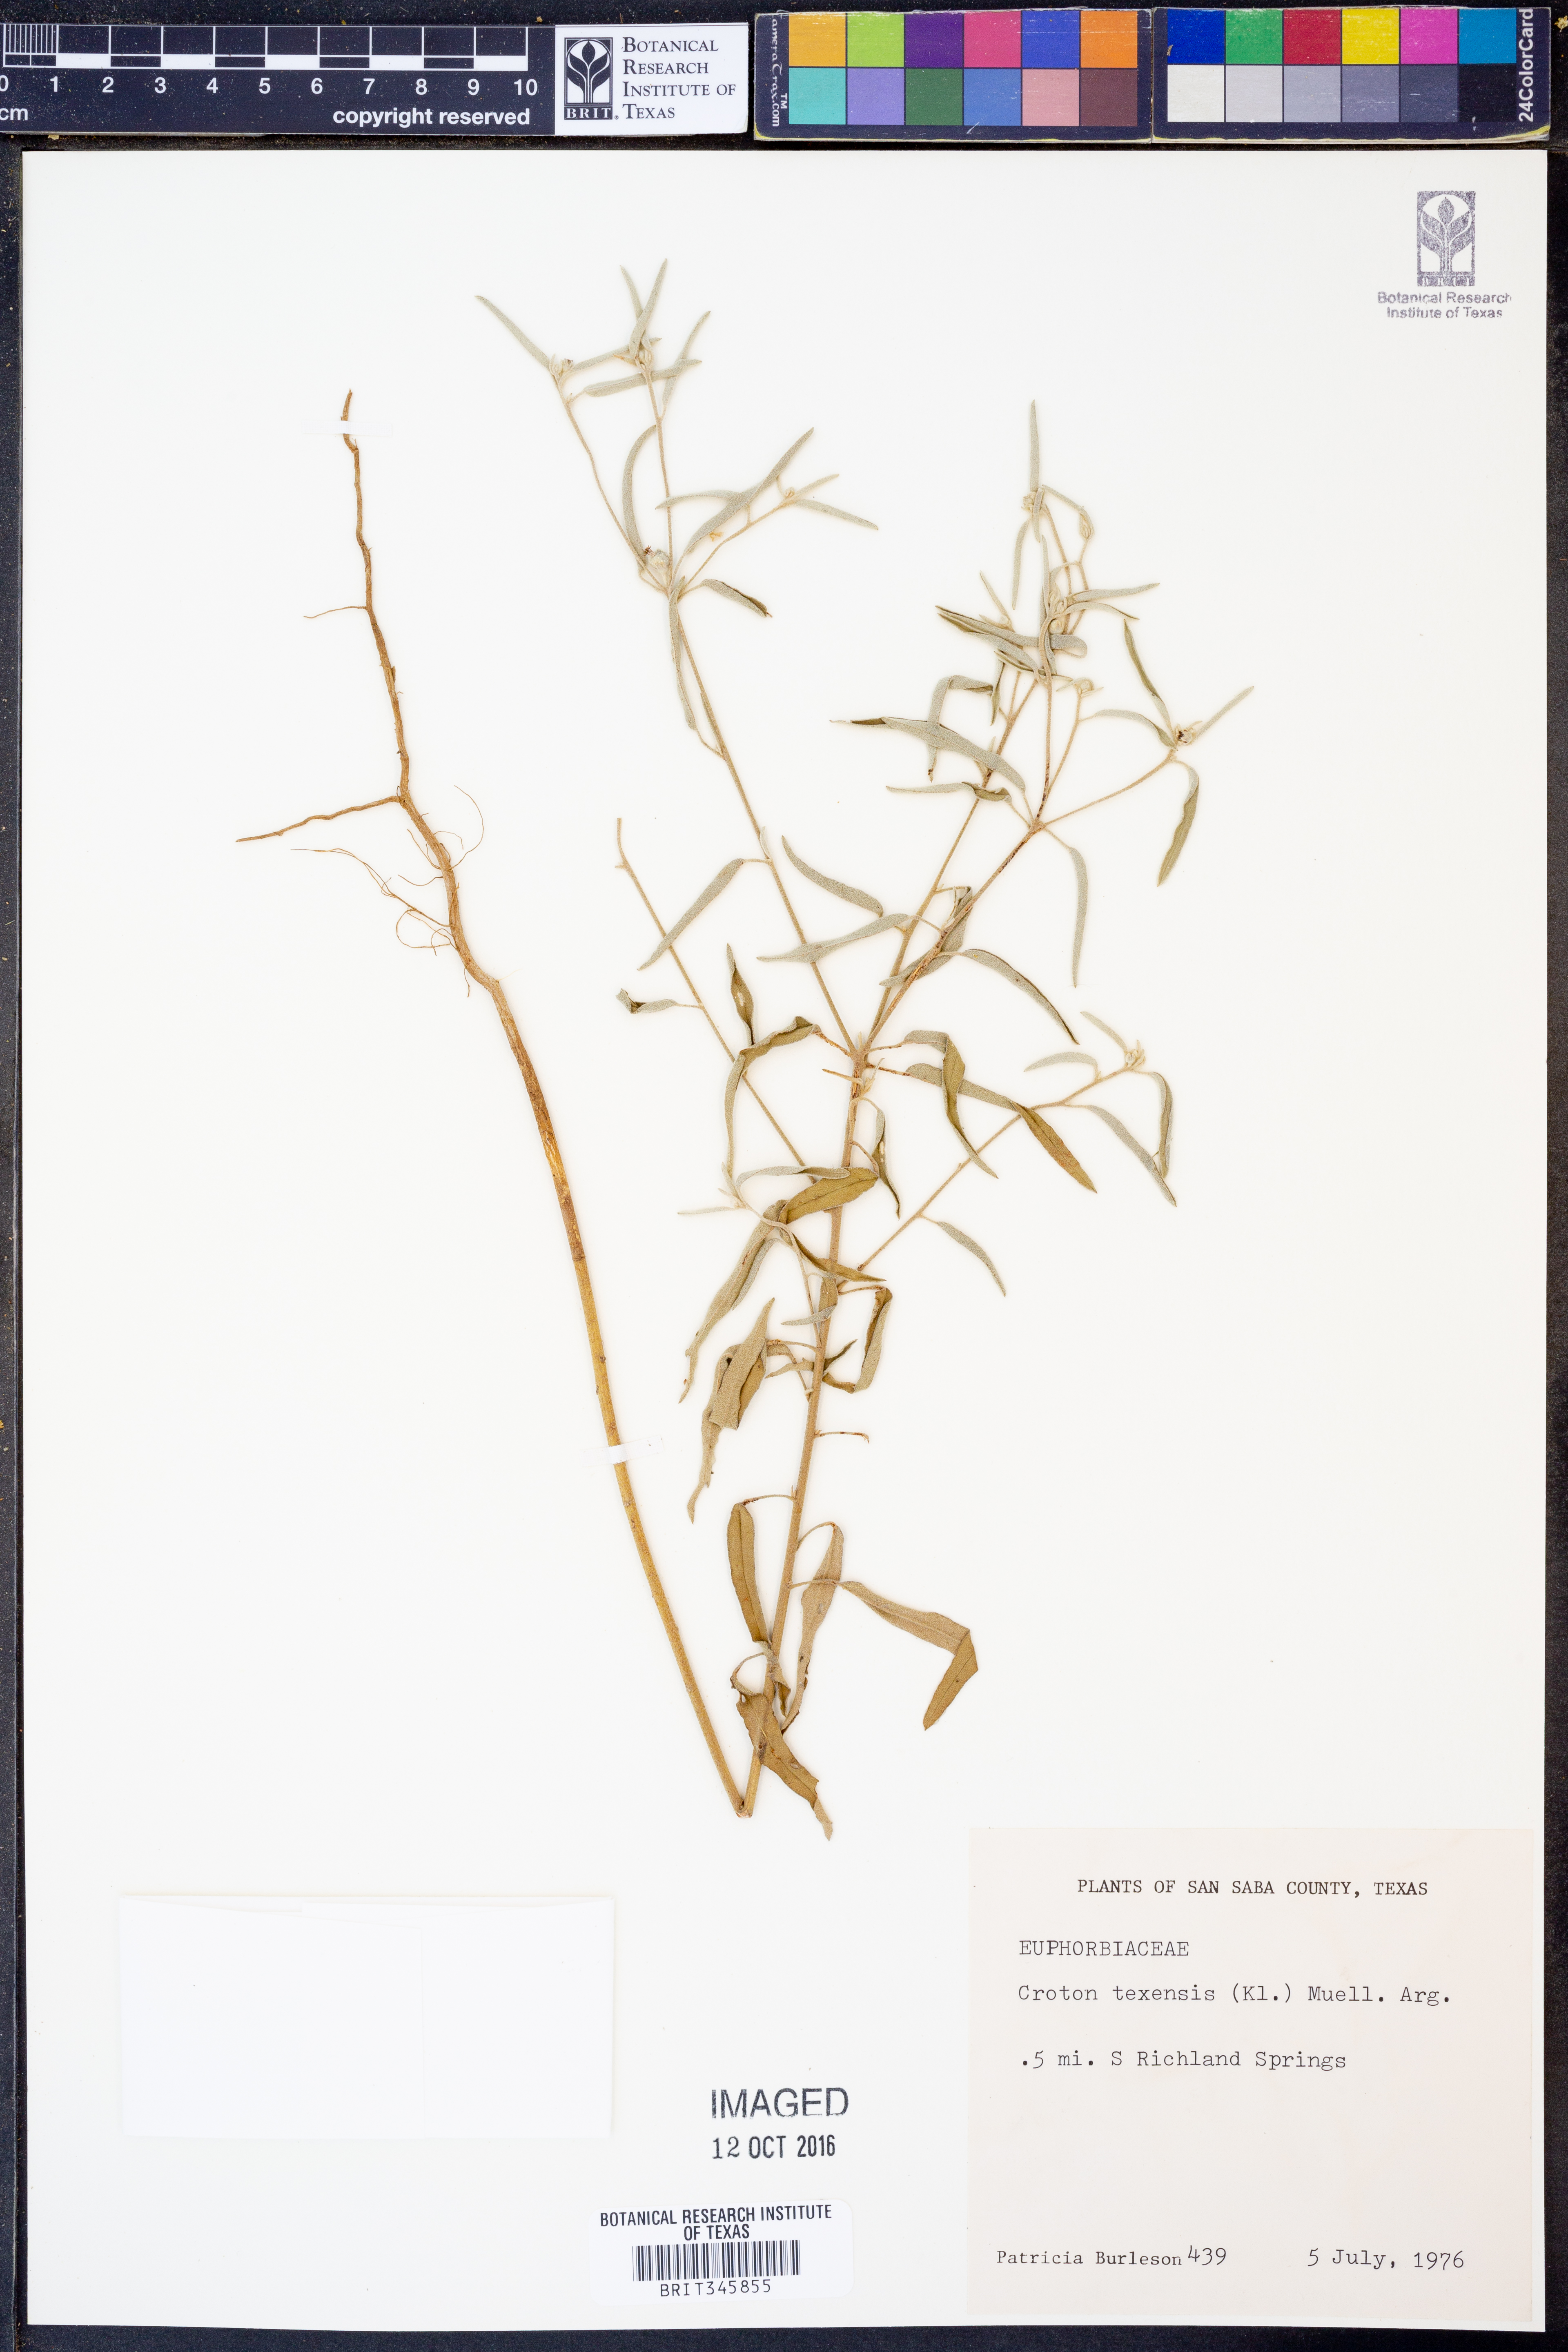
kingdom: Plantae
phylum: Tracheophyta
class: Magnoliopsida
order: Malpighiales
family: Euphorbiaceae
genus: Croton
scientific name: Croton texensis
